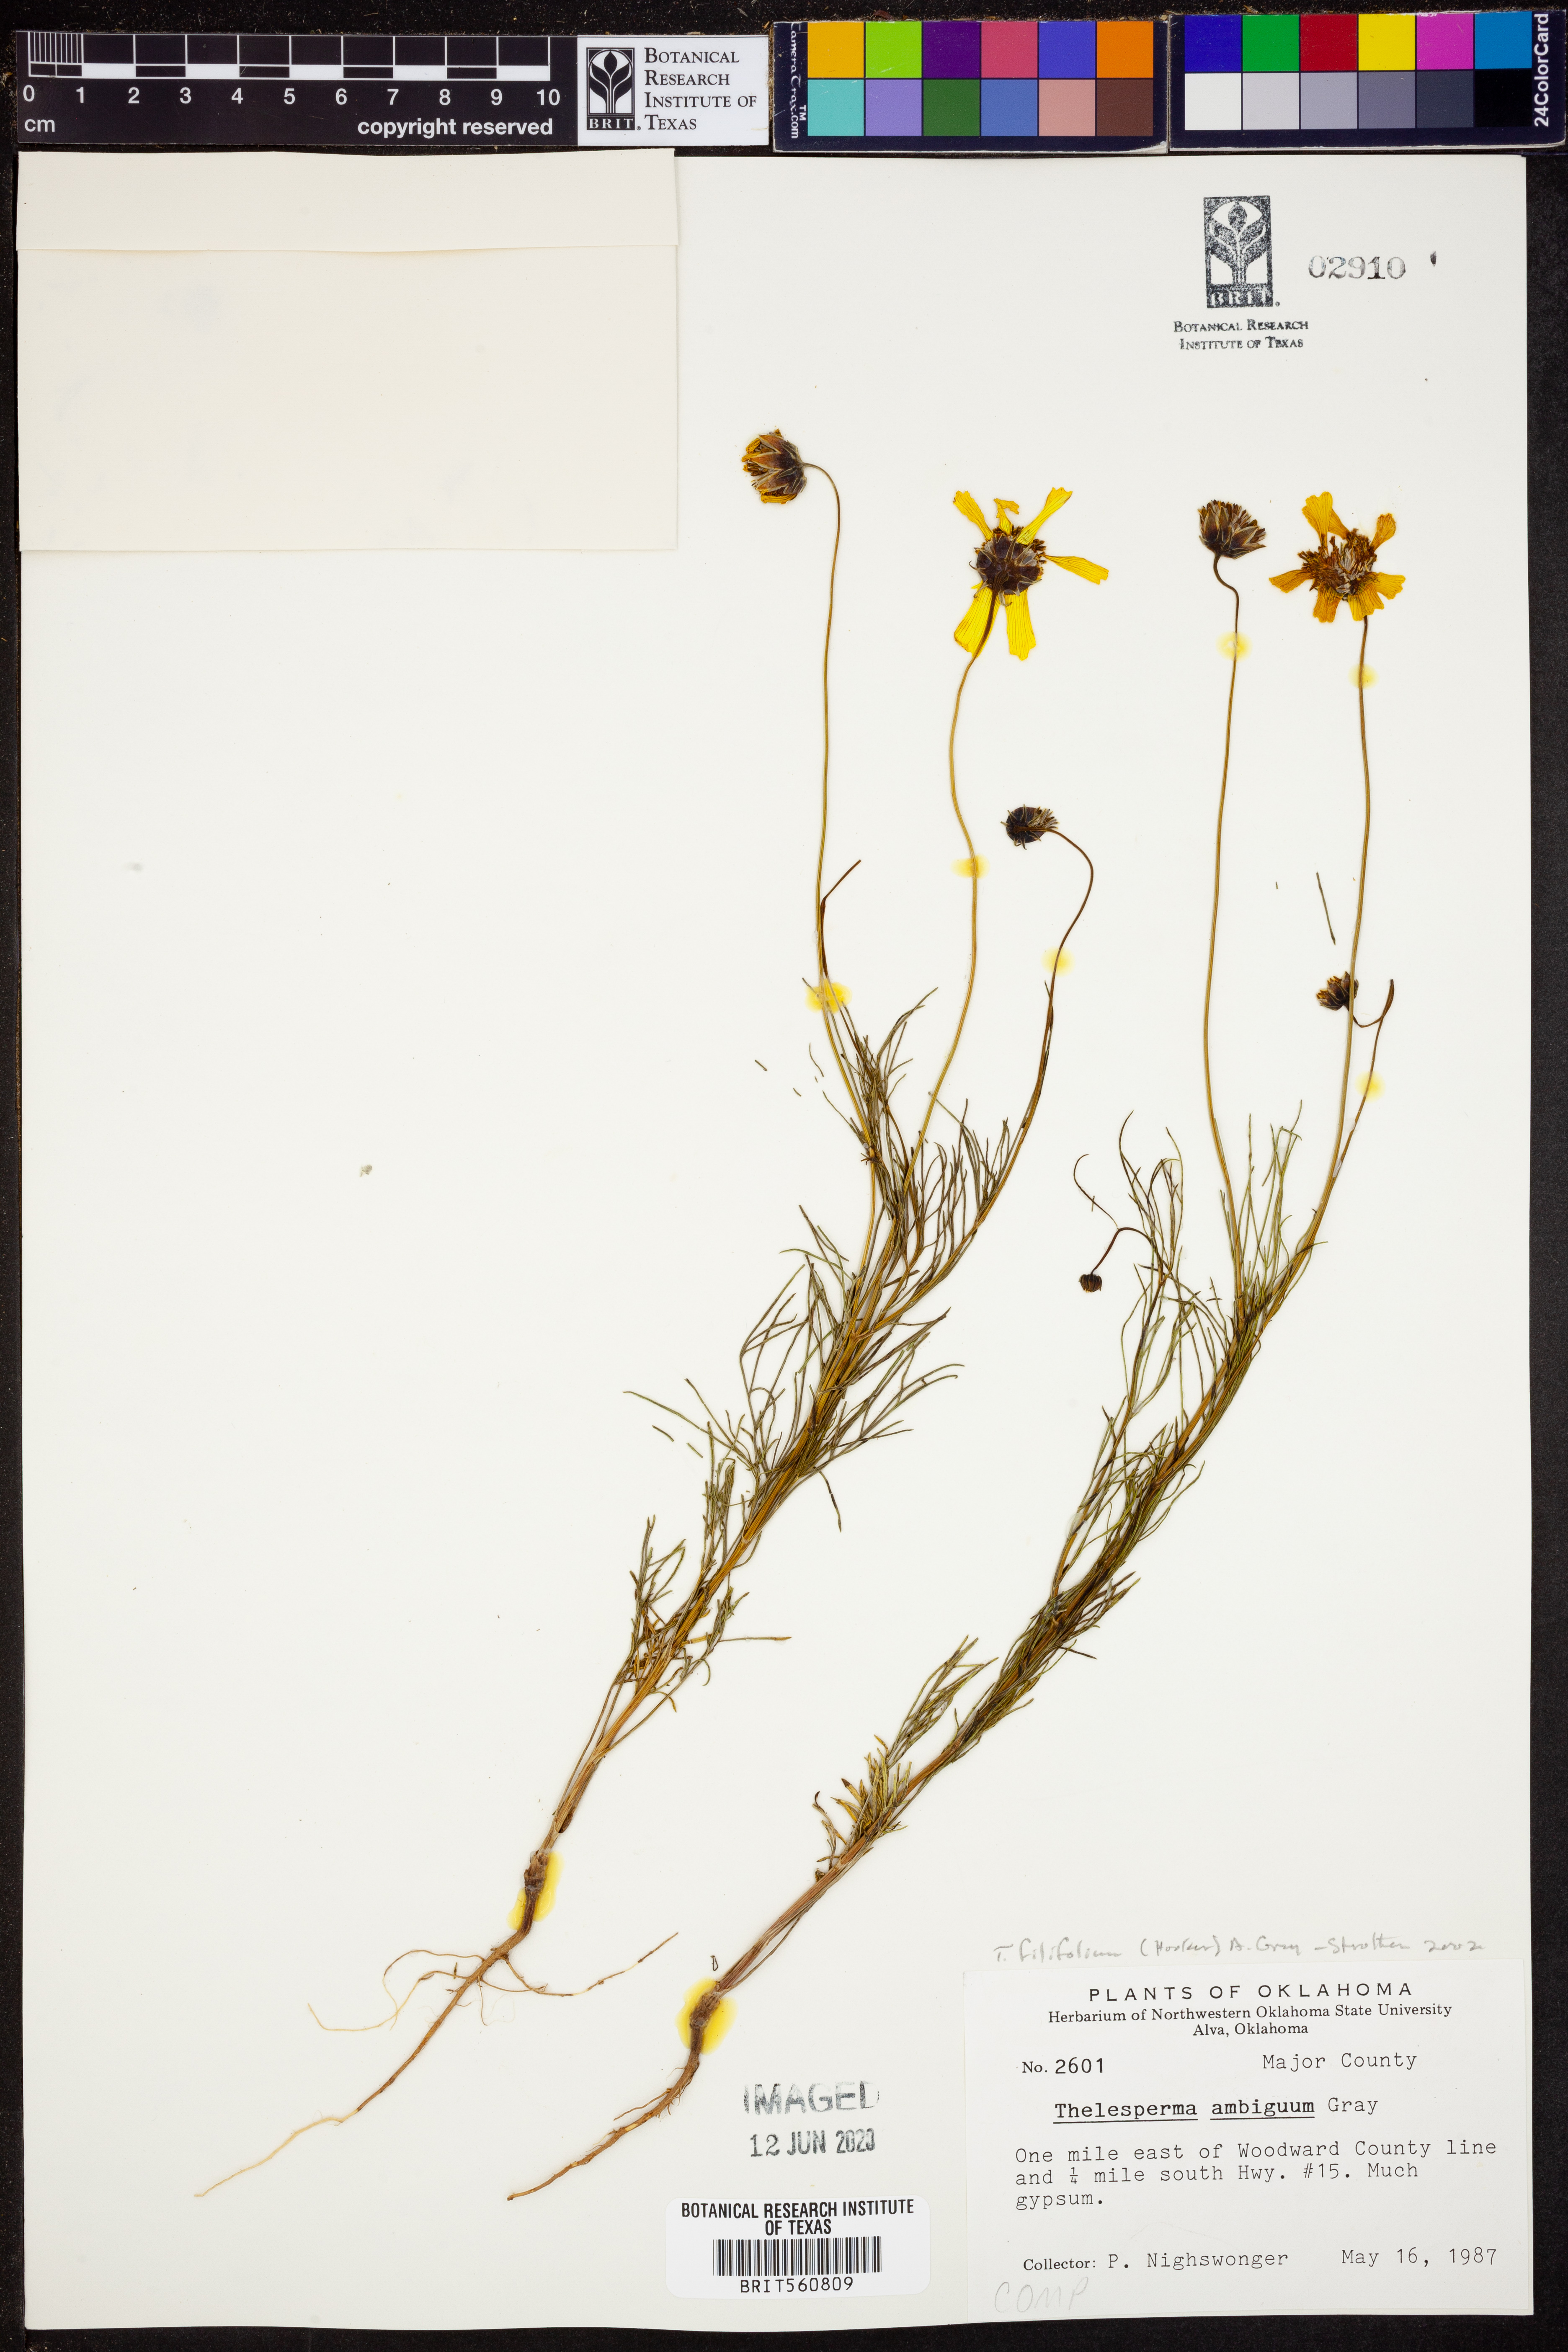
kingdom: Plantae
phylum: Tracheophyta
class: Magnoliopsida
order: Asterales
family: Asteraceae
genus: Thelesperma
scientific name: Thelesperma filifolium
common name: Stiff greenthread
